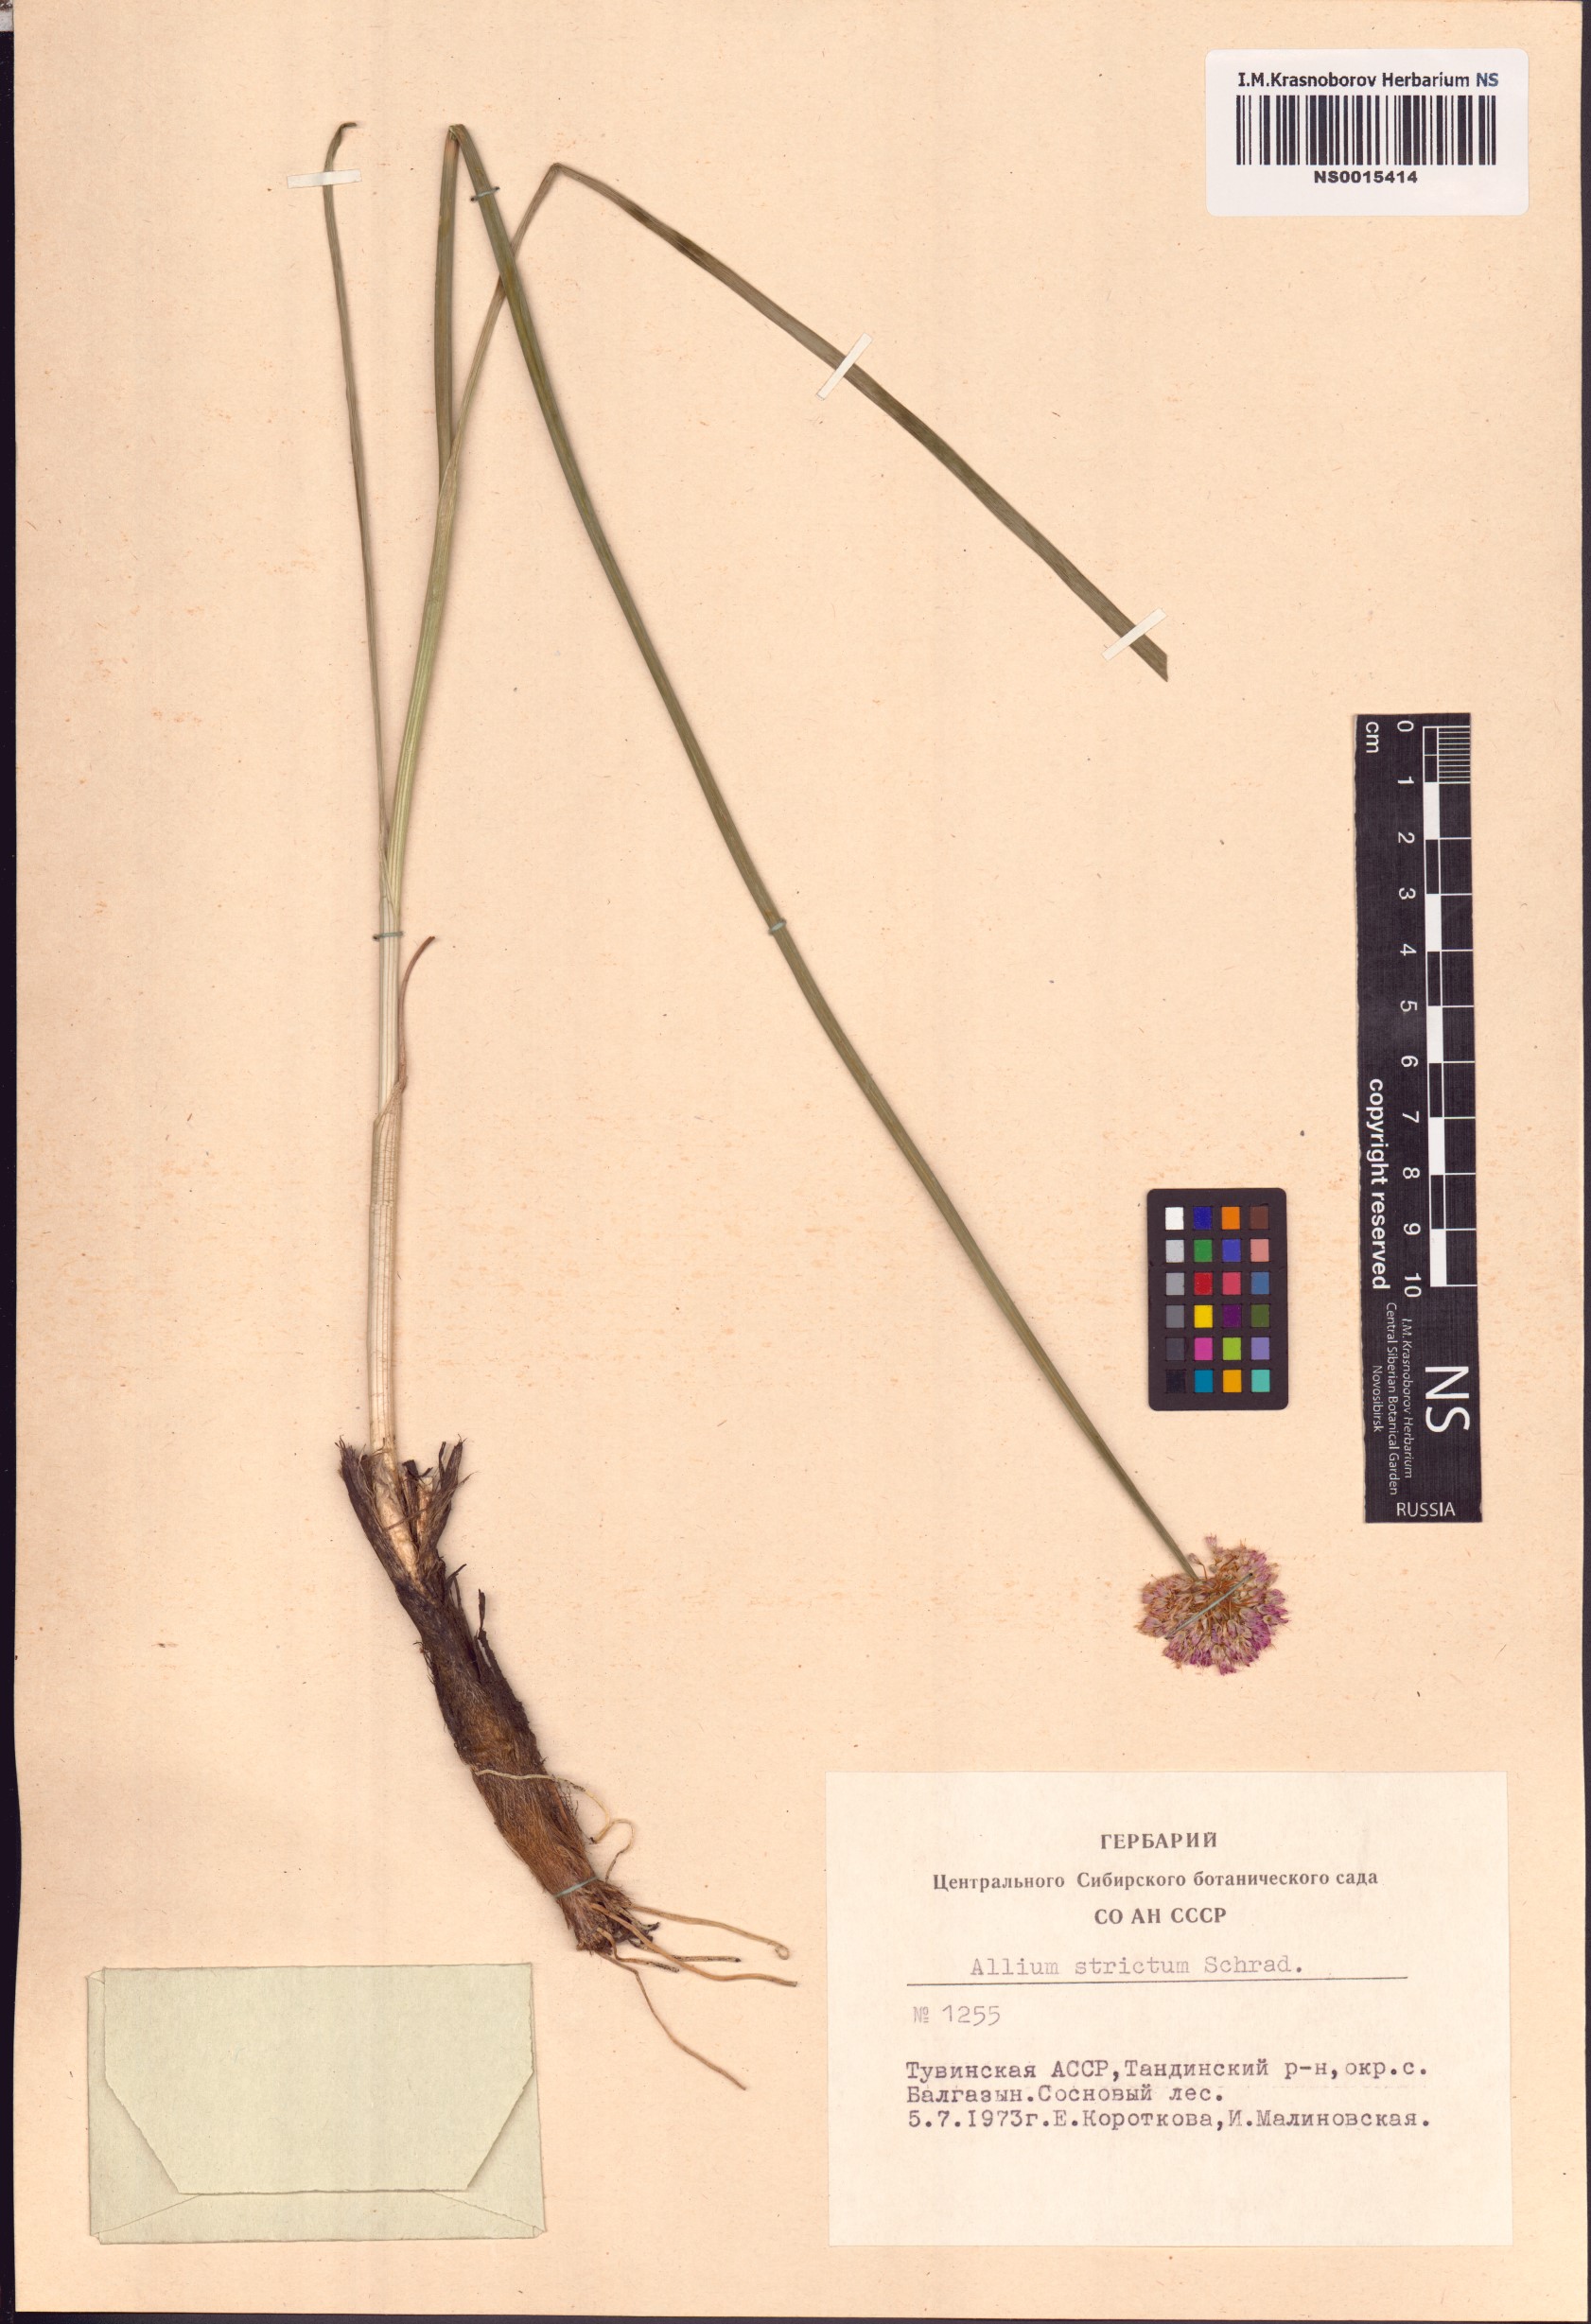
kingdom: Plantae
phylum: Tracheophyta
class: Liliopsida
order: Asparagales
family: Amaryllidaceae
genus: Allium
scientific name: Allium strictum
